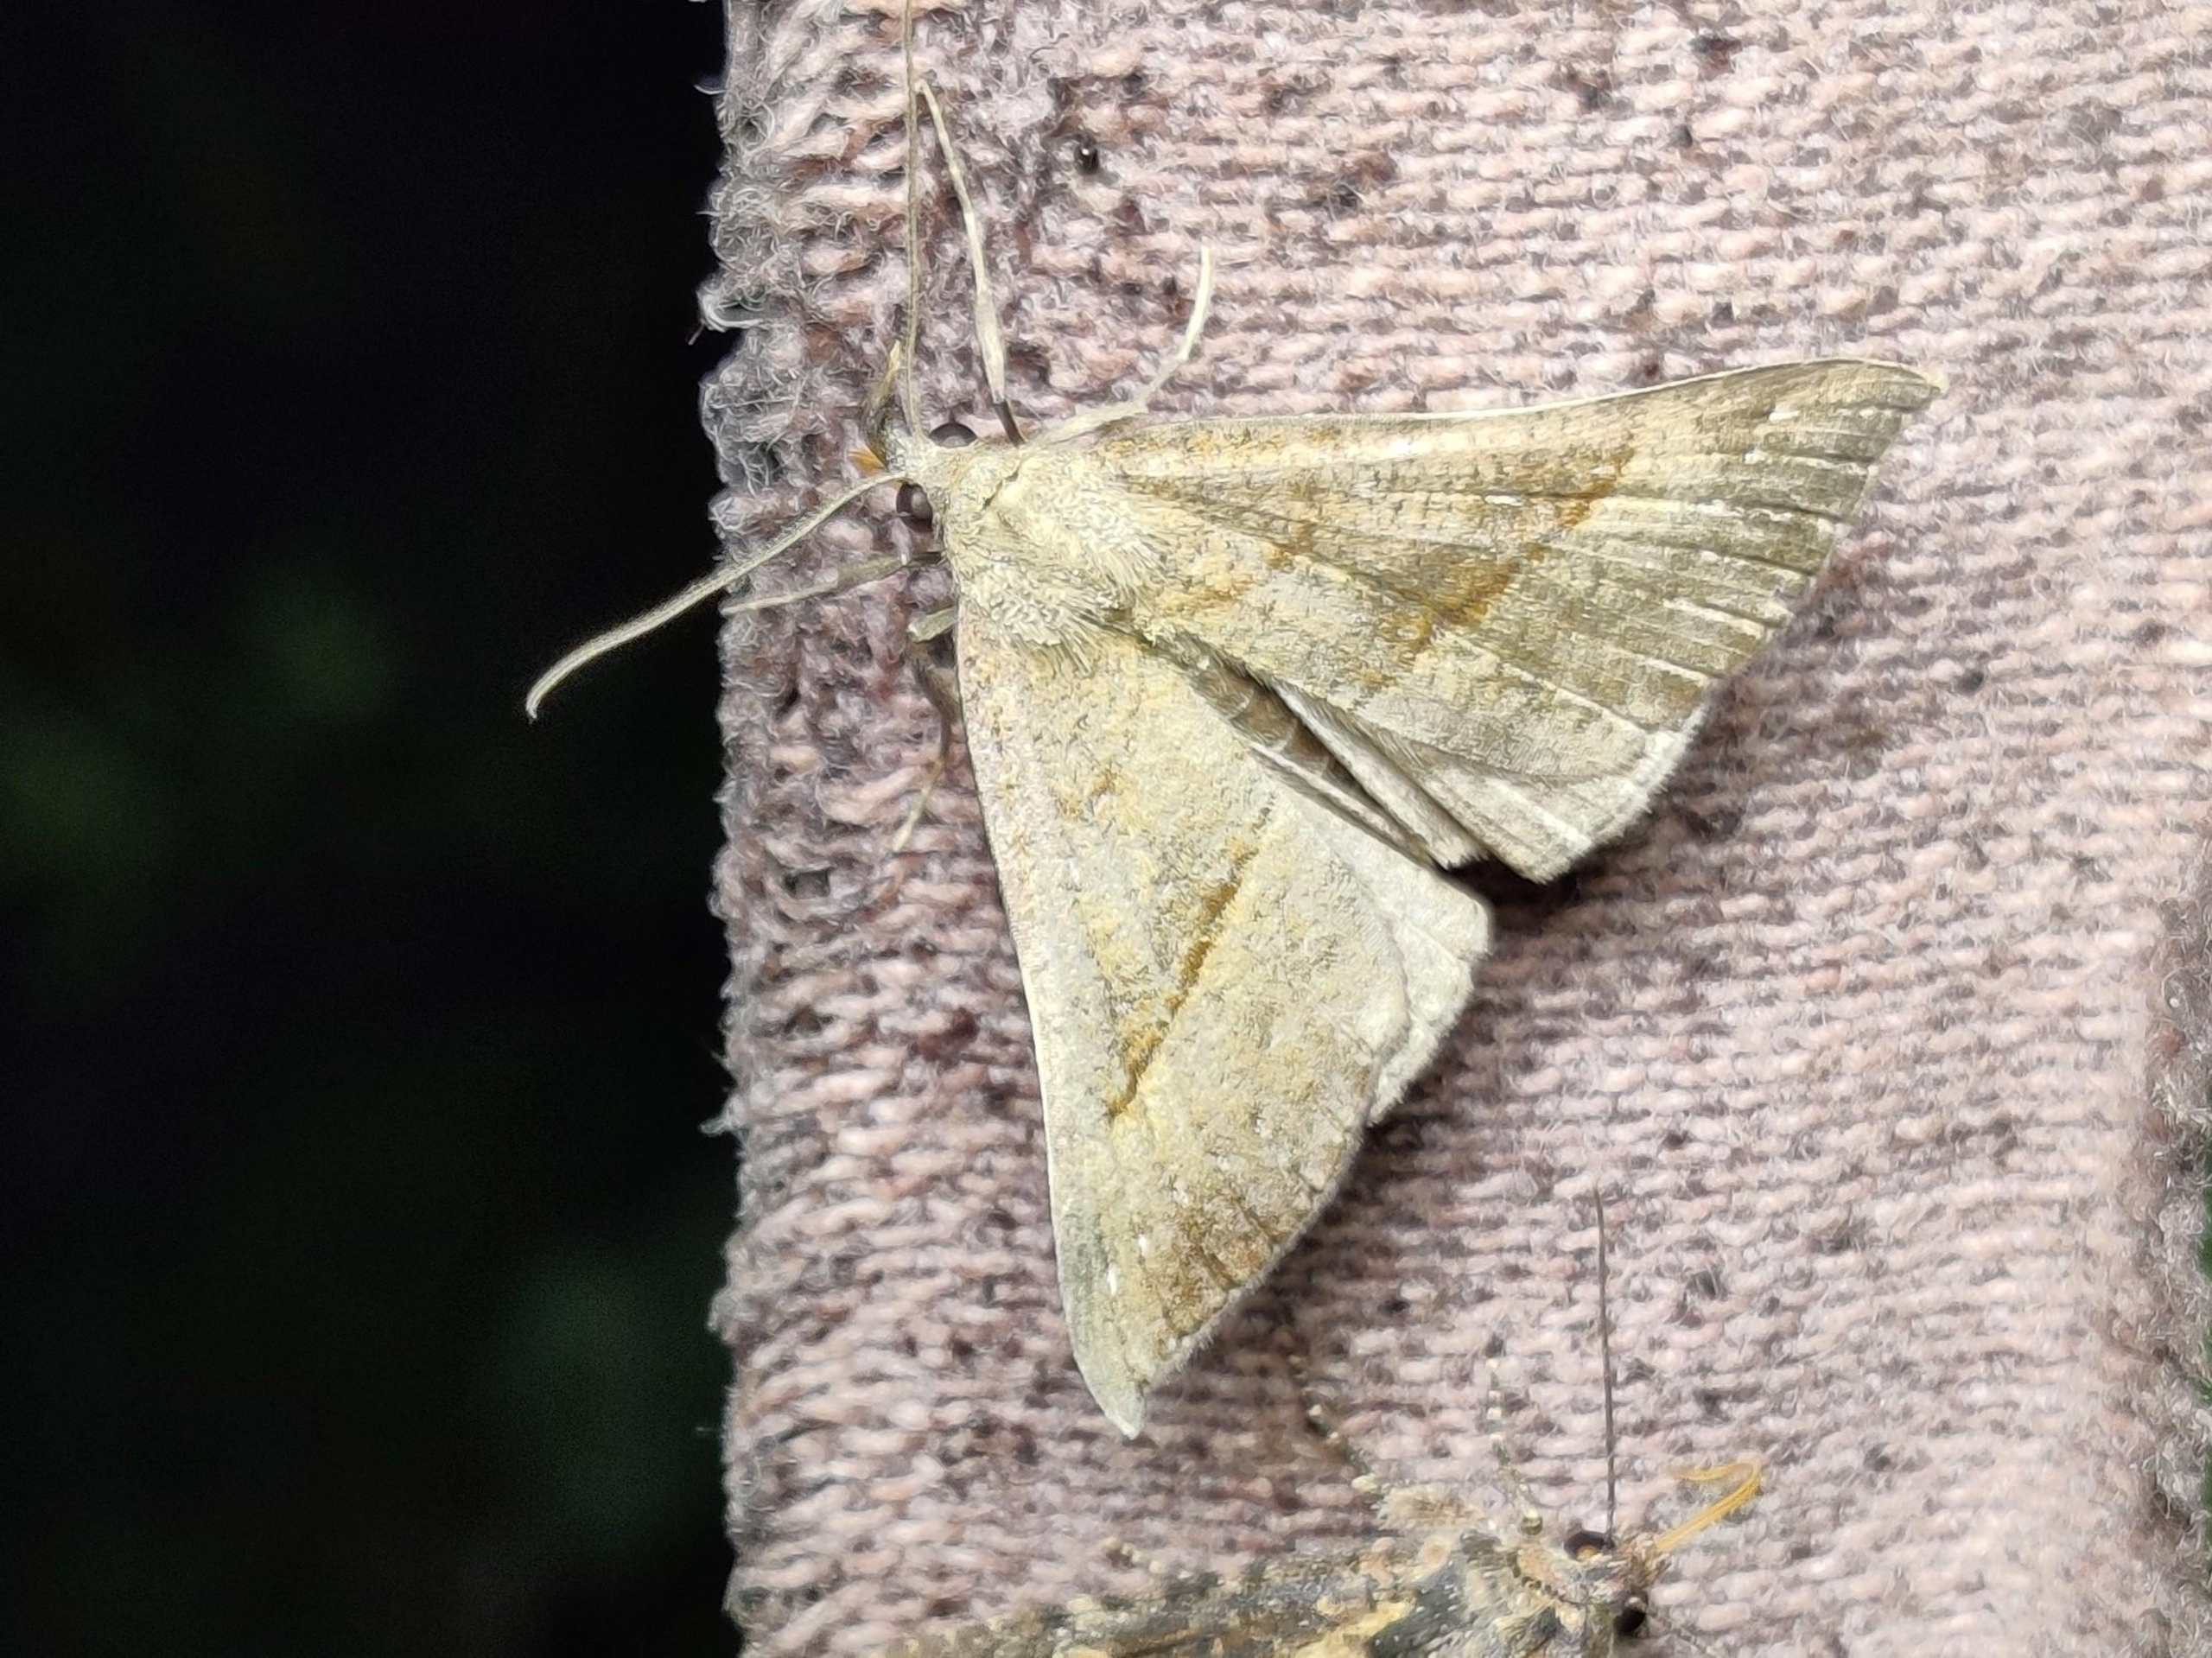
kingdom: Animalia
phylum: Arthropoda
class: Insecta
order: Lepidoptera
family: Erebidae
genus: Hypena
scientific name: Hypena proboscidalis
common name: Snudeugle
